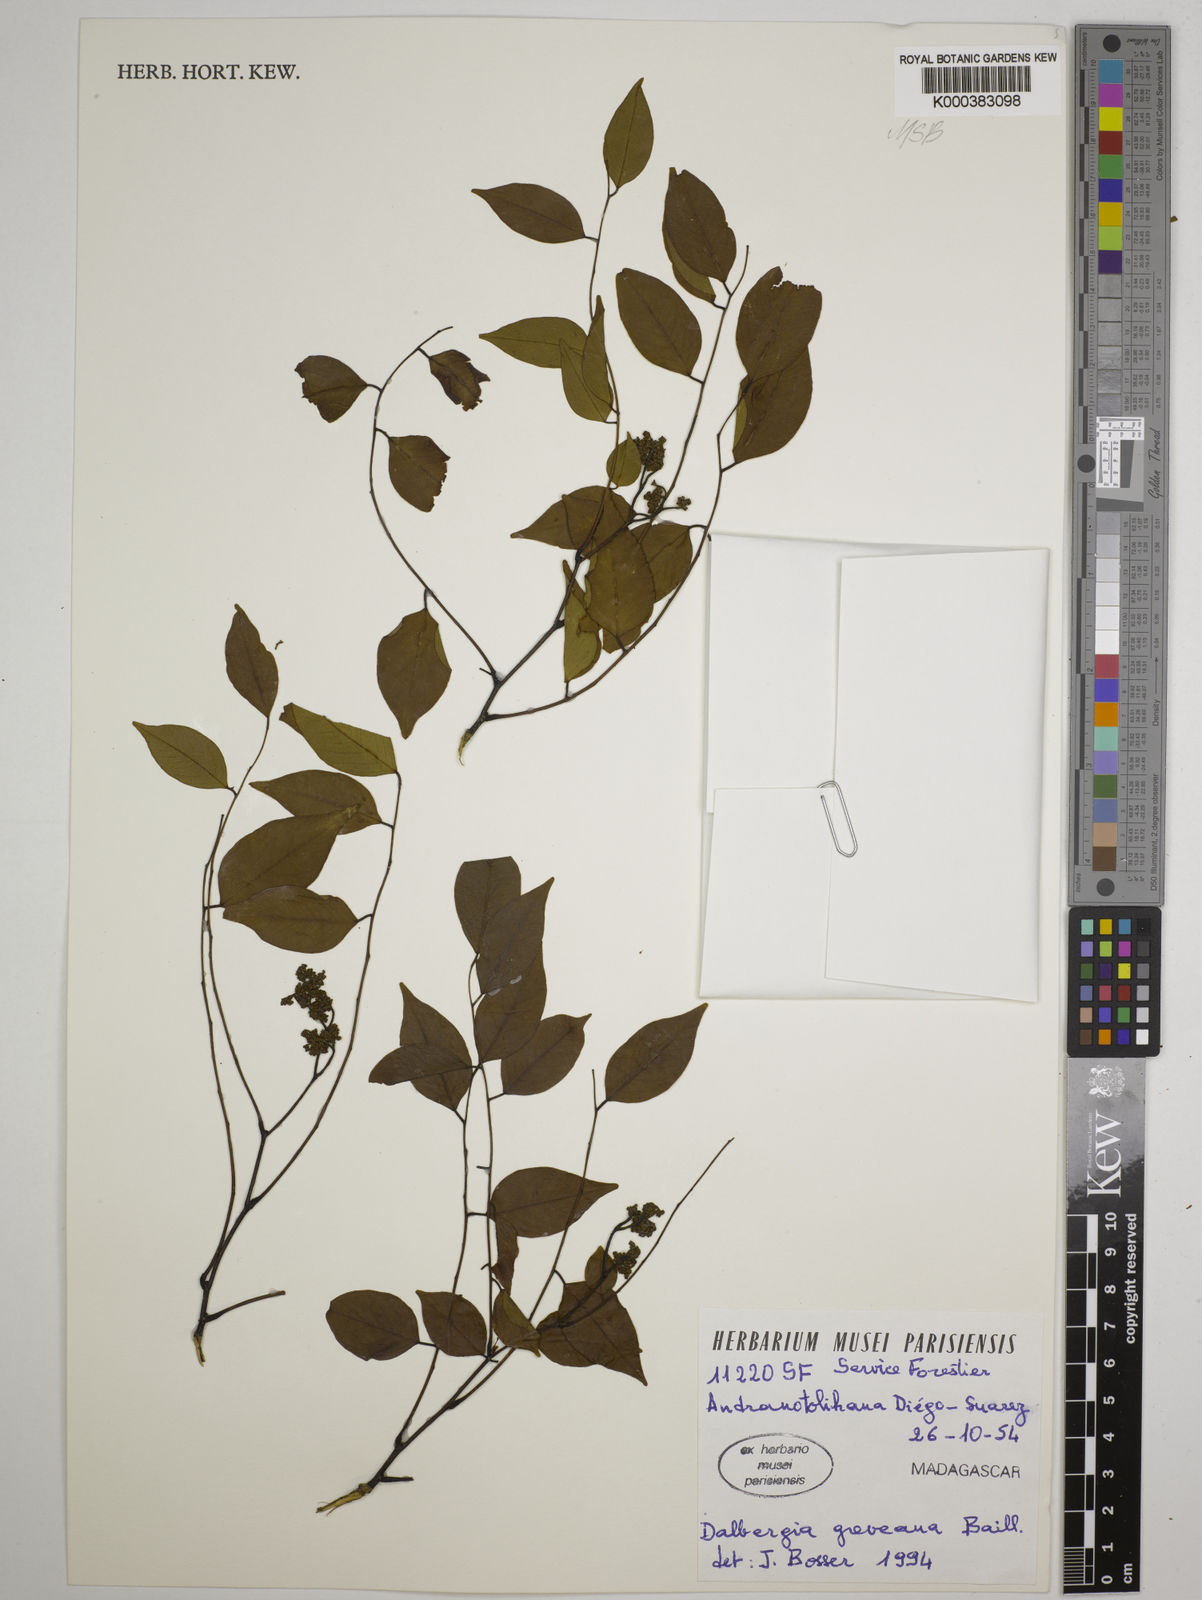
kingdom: Plantae
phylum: Tracheophyta
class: Magnoliopsida
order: Fabales
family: Fabaceae
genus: Dalbergia
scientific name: Dalbergia greveana
